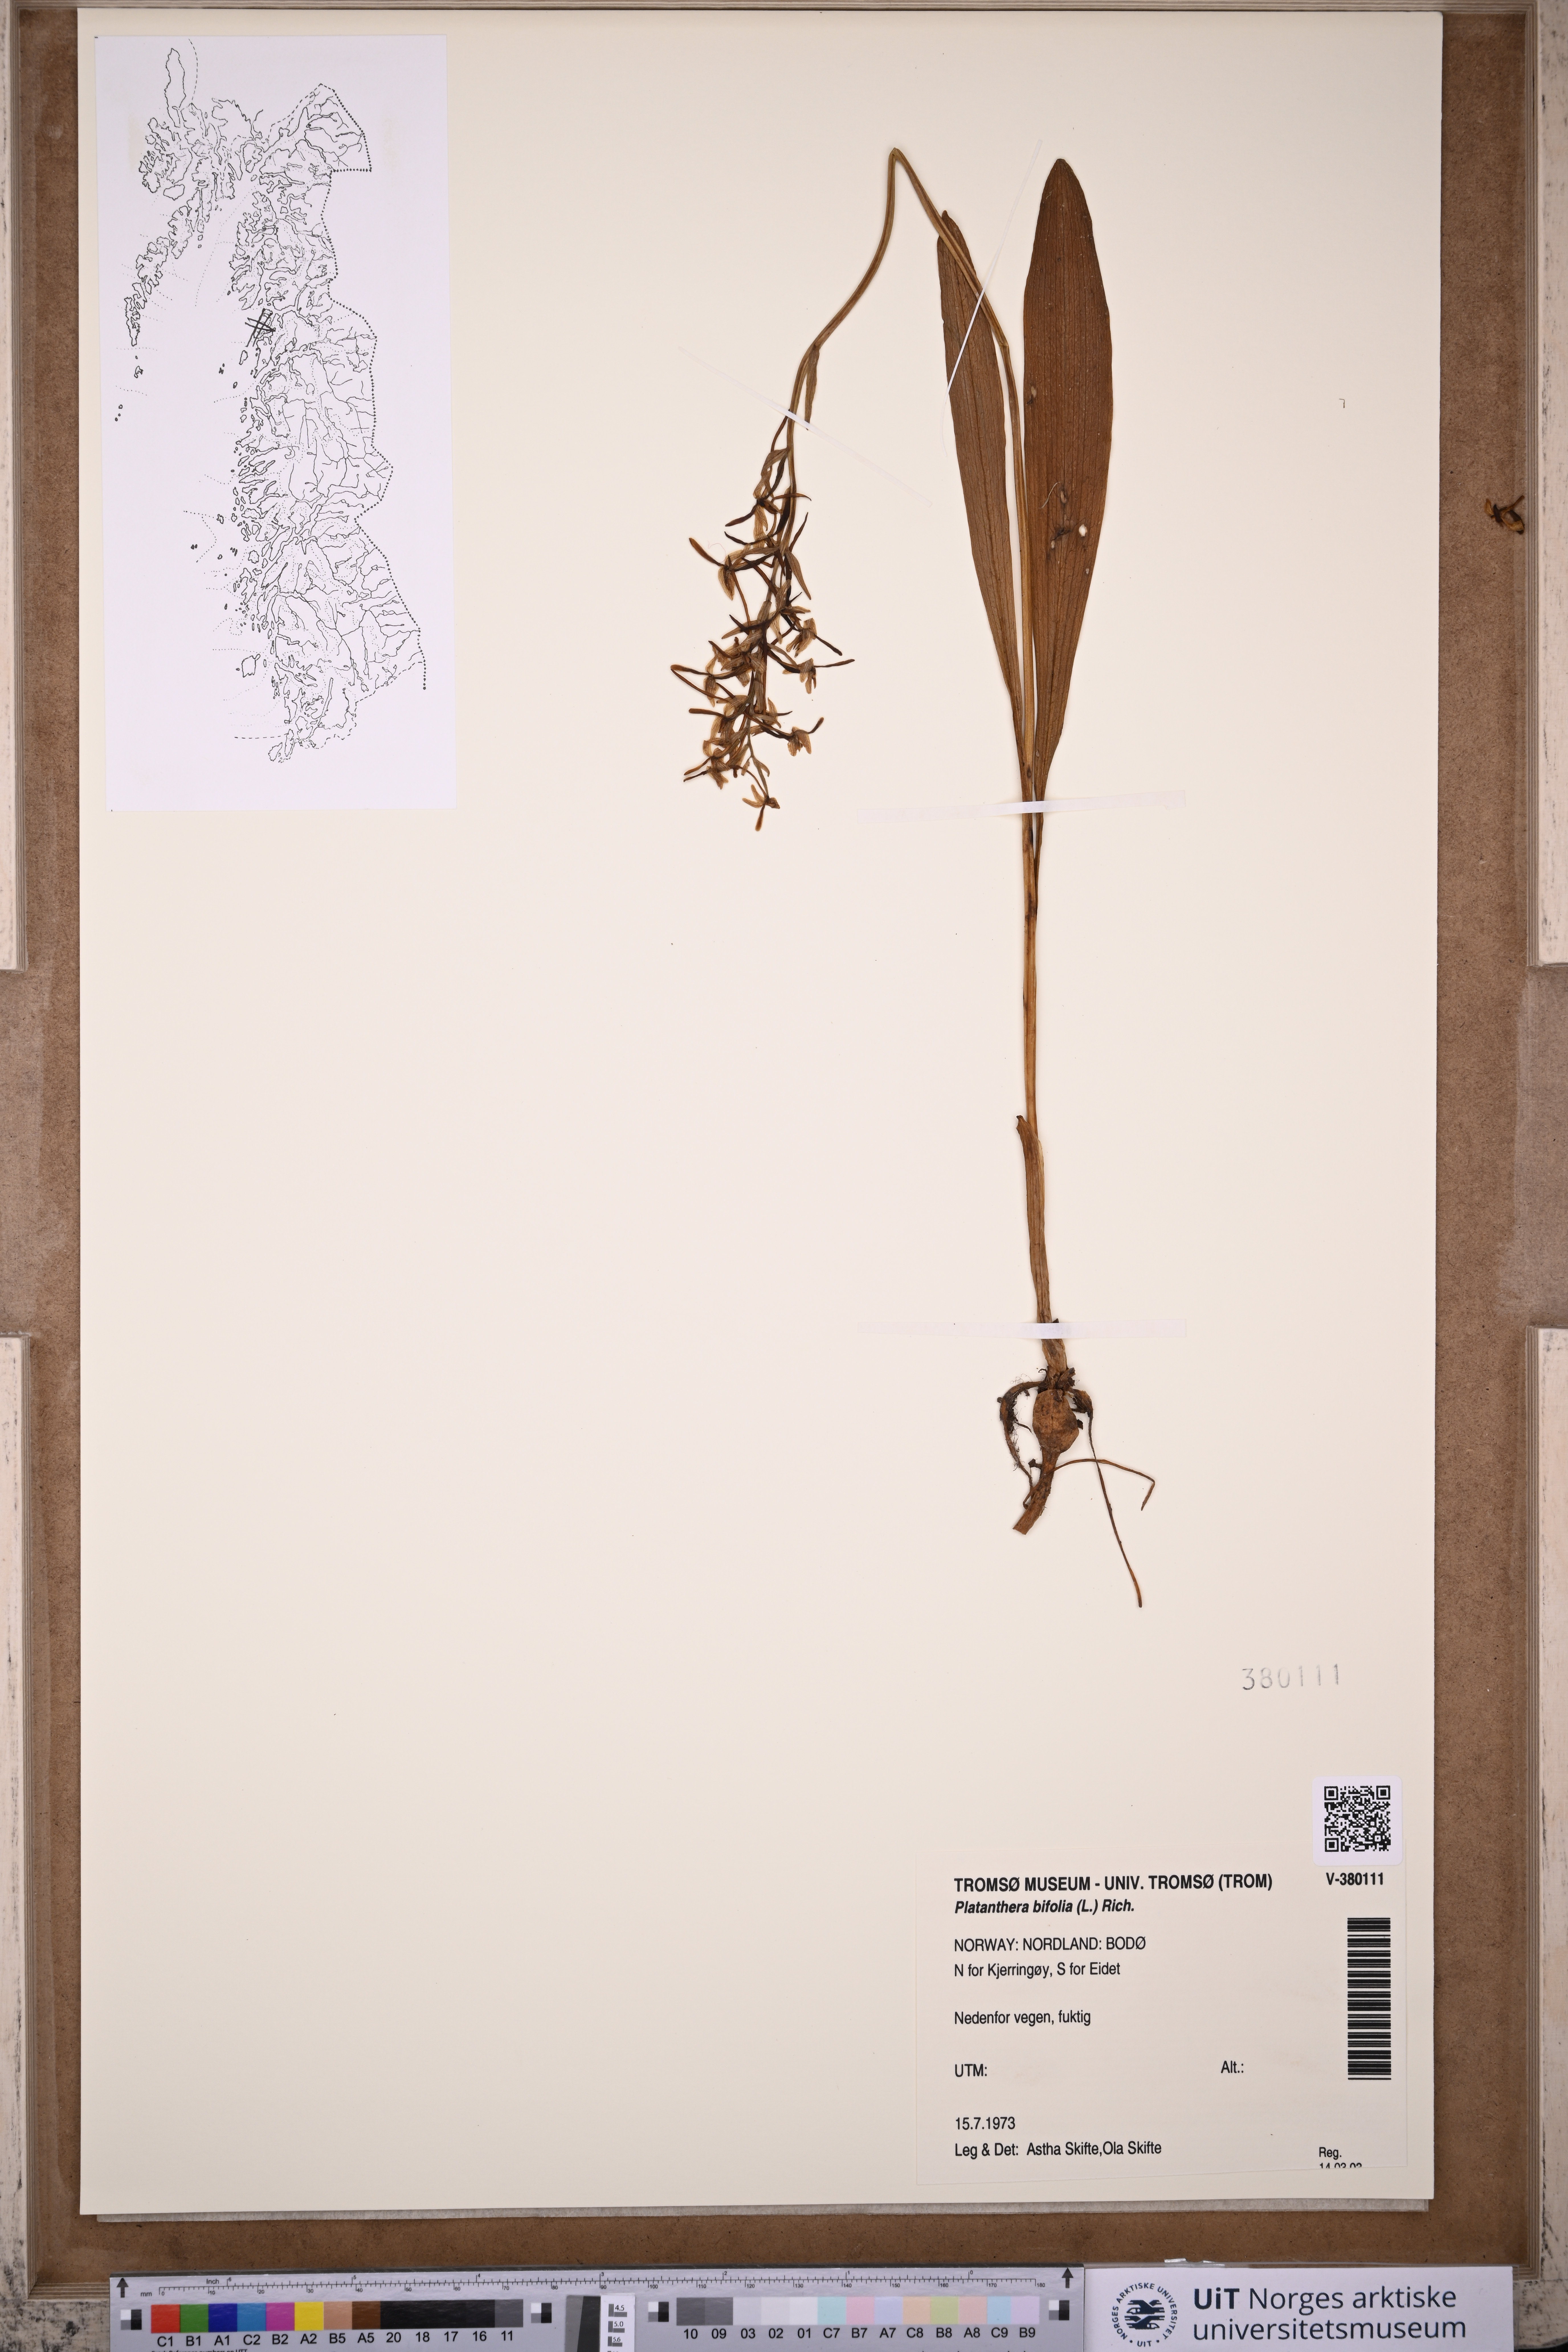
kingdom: Plantae
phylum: Tracheophyta
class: Liliopsida
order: Asparagales
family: Orchidaceae
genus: Platanthera
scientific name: Platanthera bifolia
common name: Lesser butterfly-orchid
